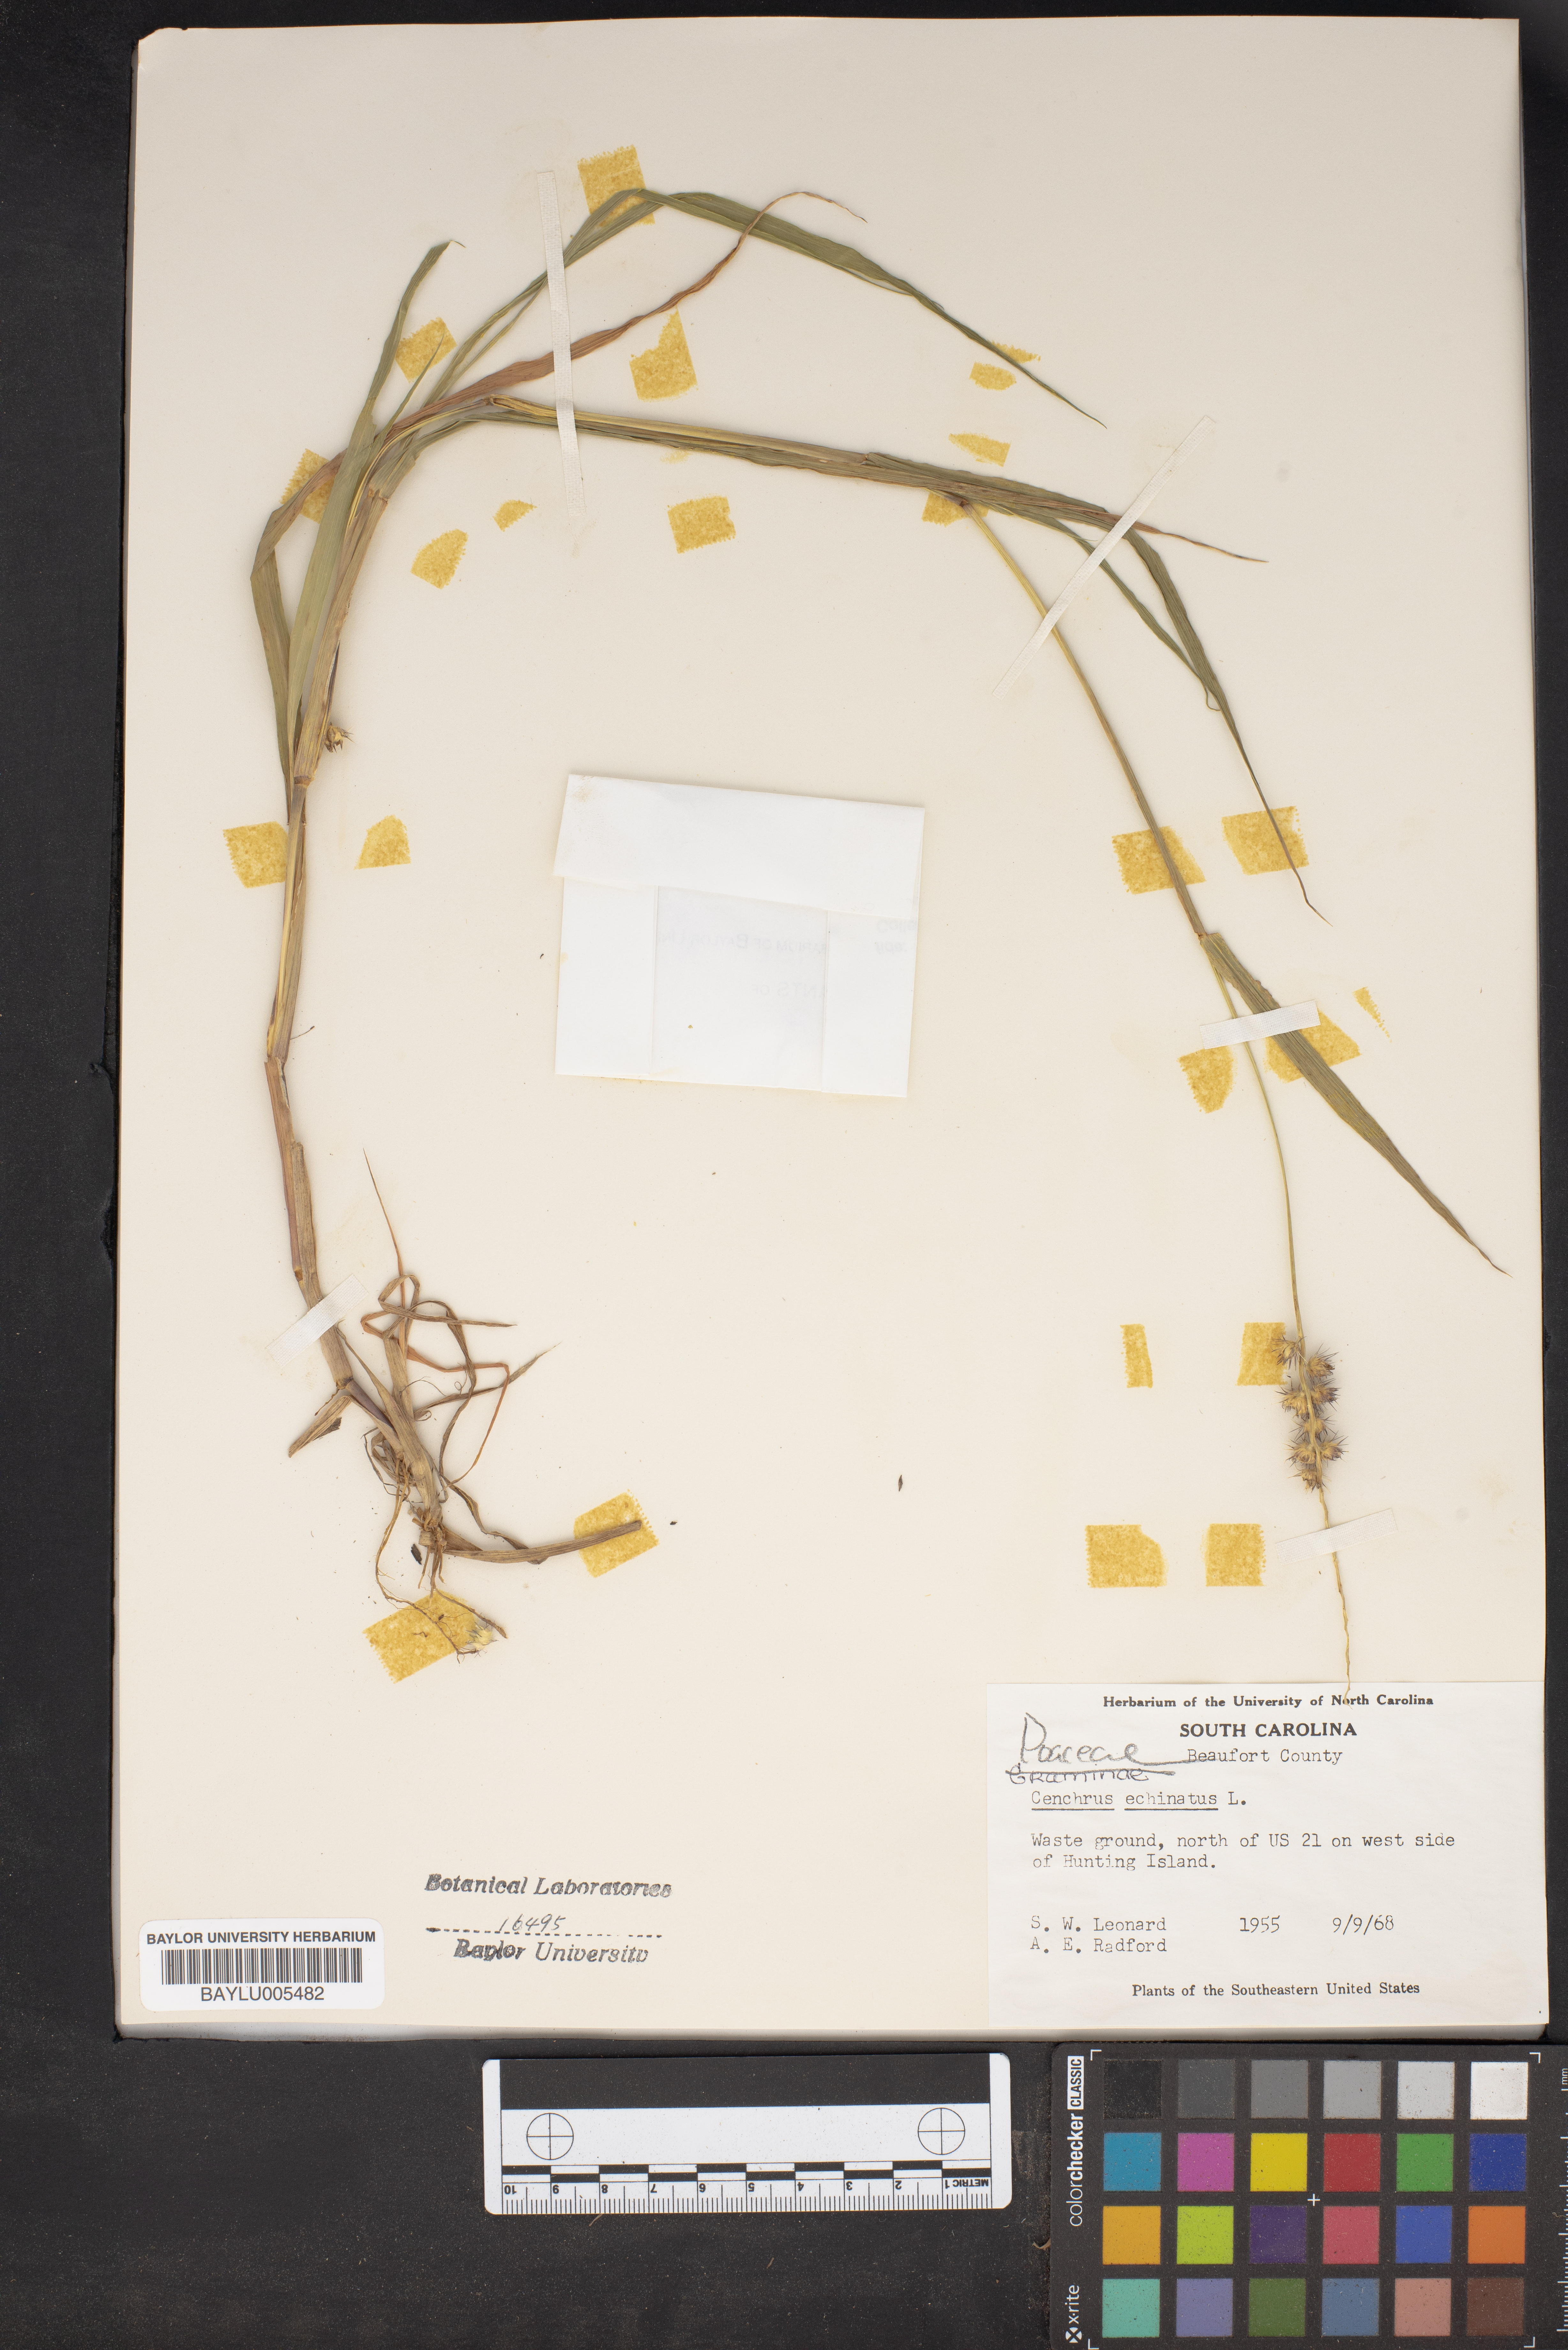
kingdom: Plantae
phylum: Tracheophyta
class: Liliopsida
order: Poales
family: Poaceae
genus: Cenchrus
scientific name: Cenchrus echinatus
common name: Southern sandbur
